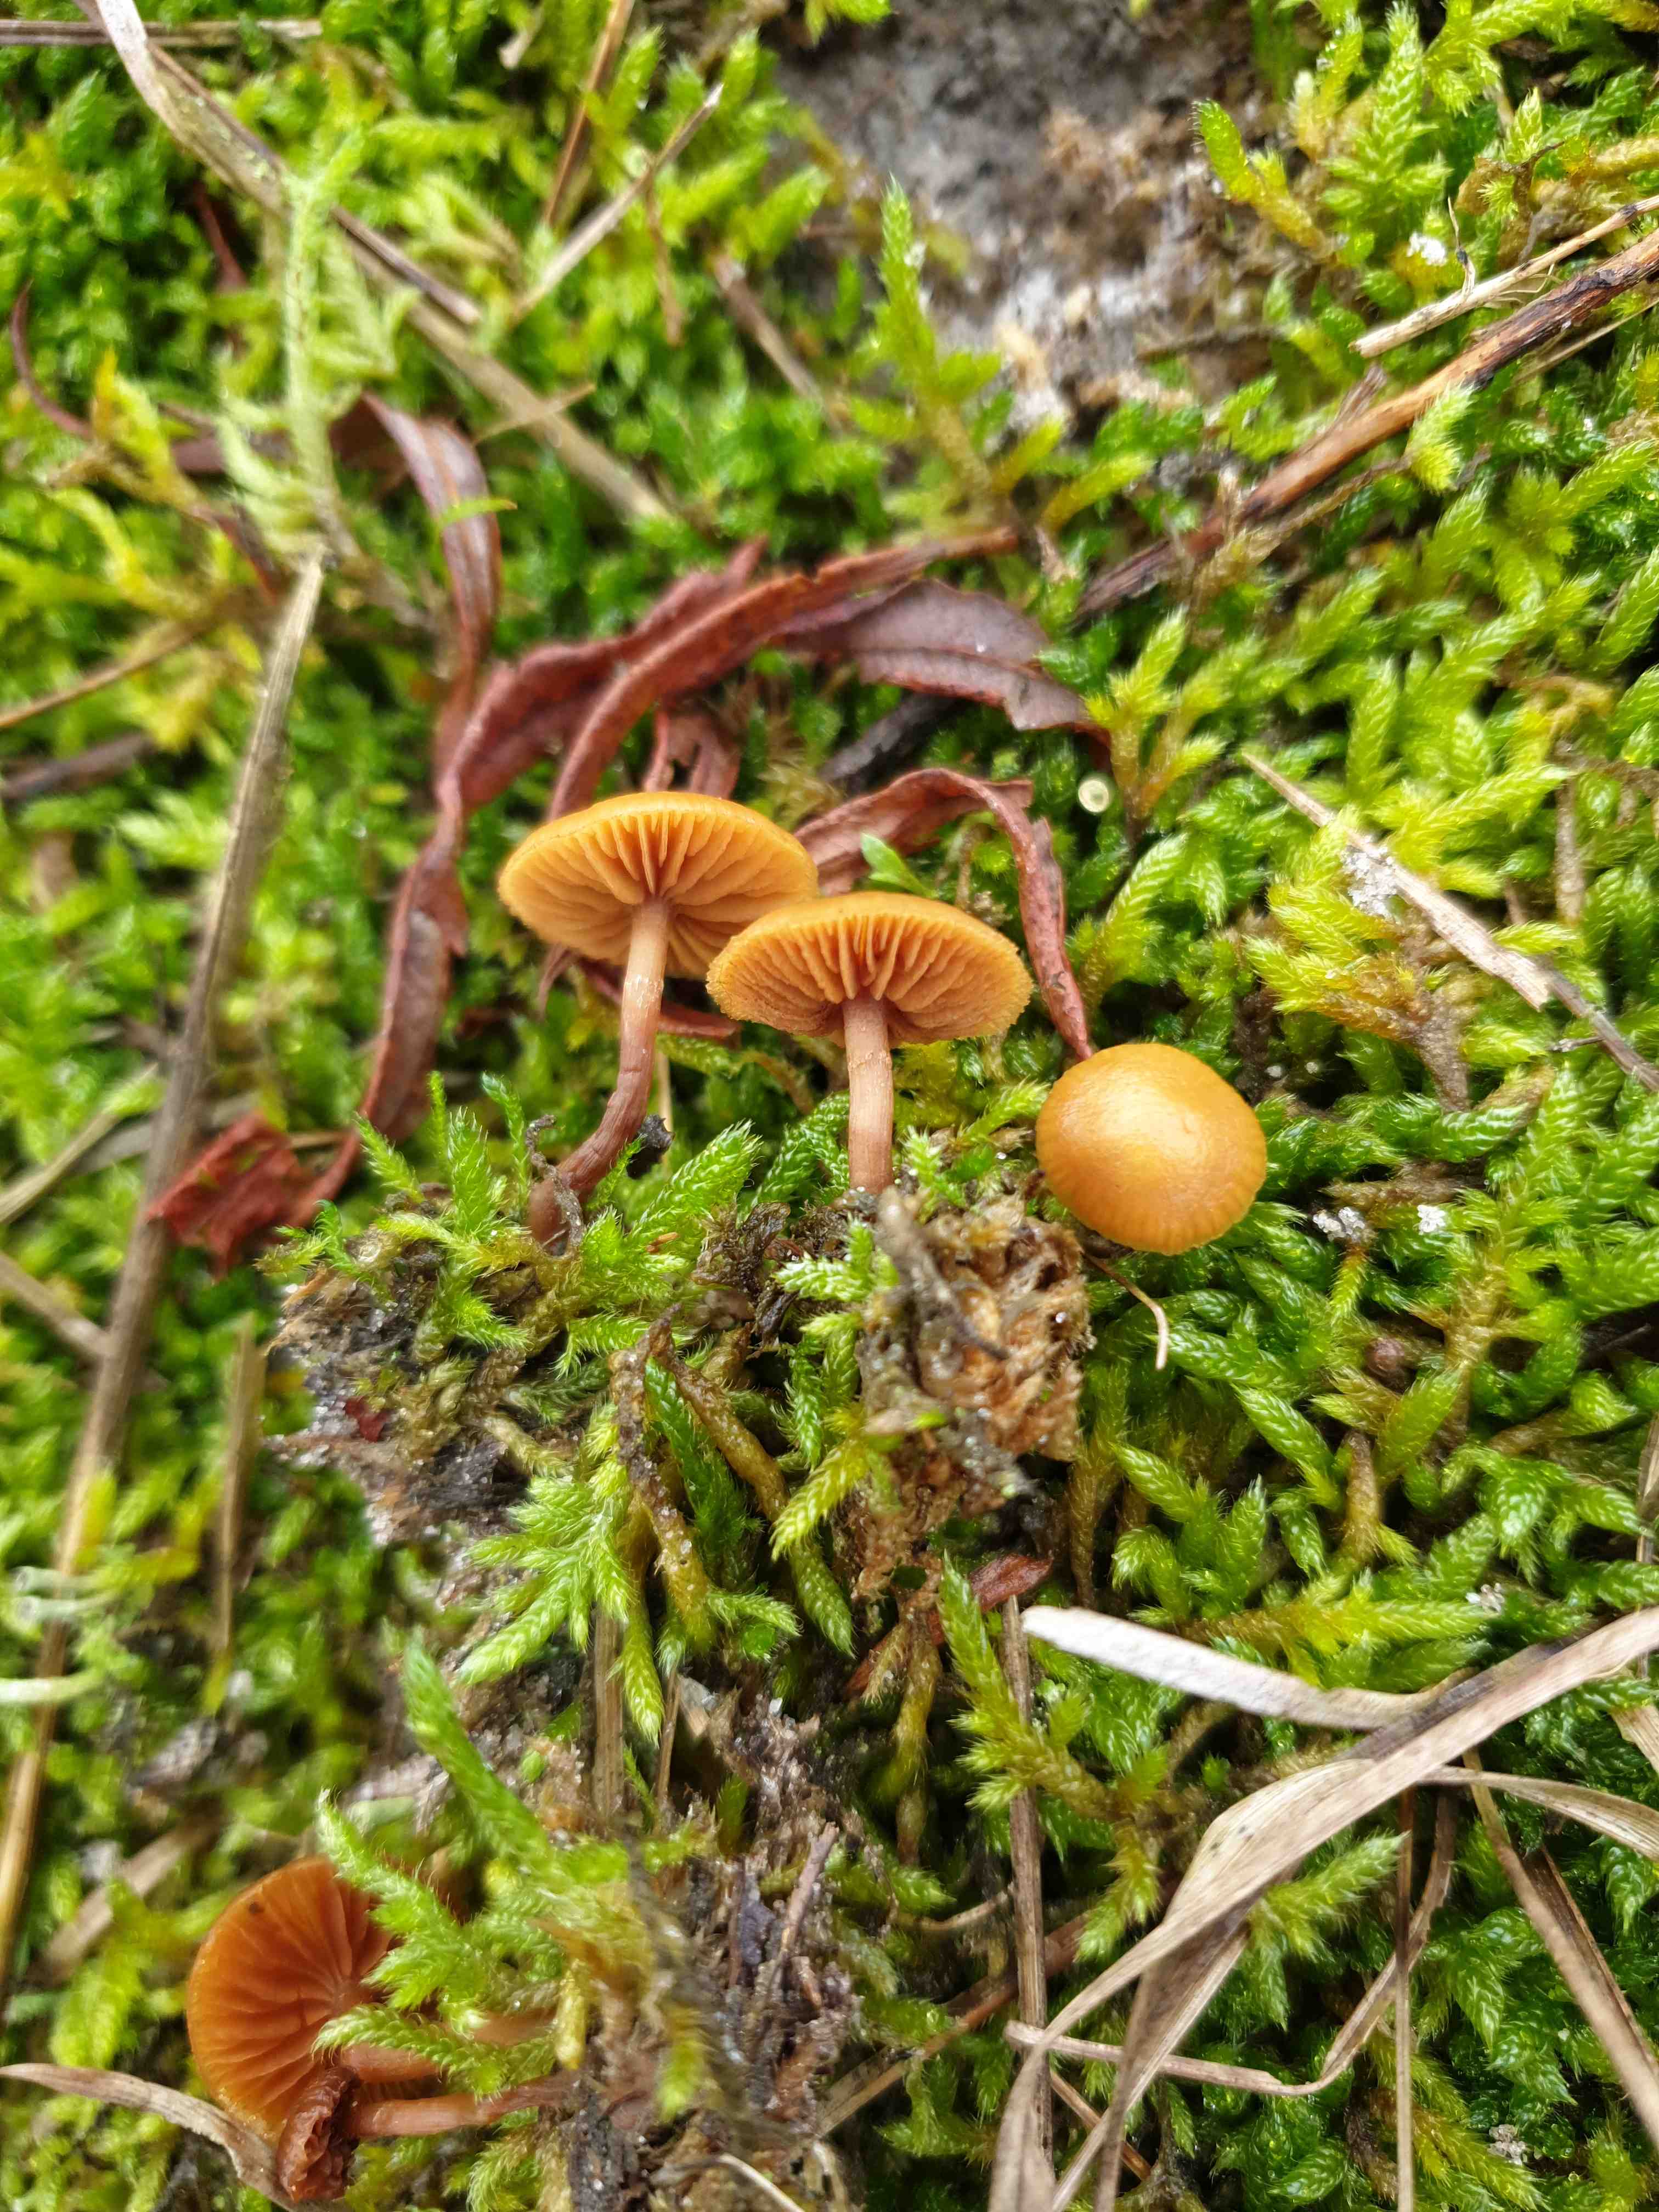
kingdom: Fungi
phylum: Basidiomycota
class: Agaricomycetes
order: Agaricales
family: Hymenogastraceae
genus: Galerina
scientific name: Galerina esteve-raventosii
